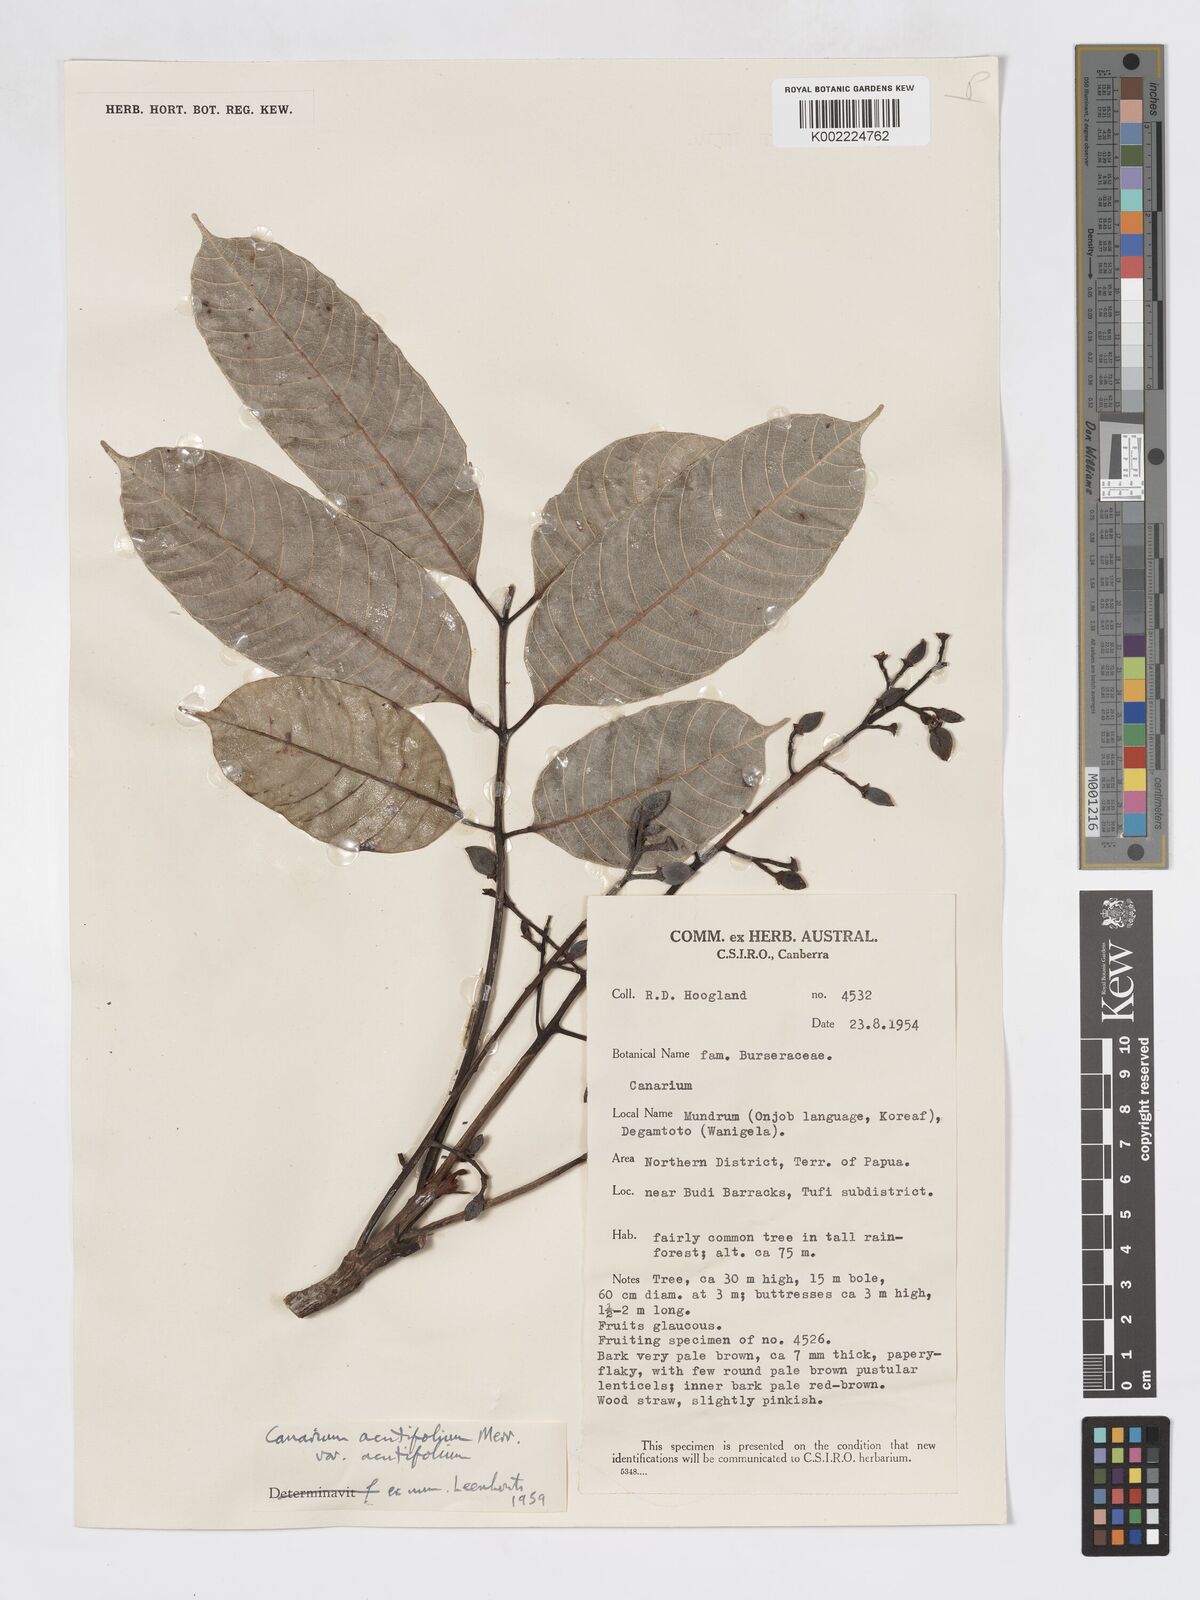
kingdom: Plantae
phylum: Tracheophyta
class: Magnoliopsida
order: Sapindales
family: Burseraceae
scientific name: Burseraceae
